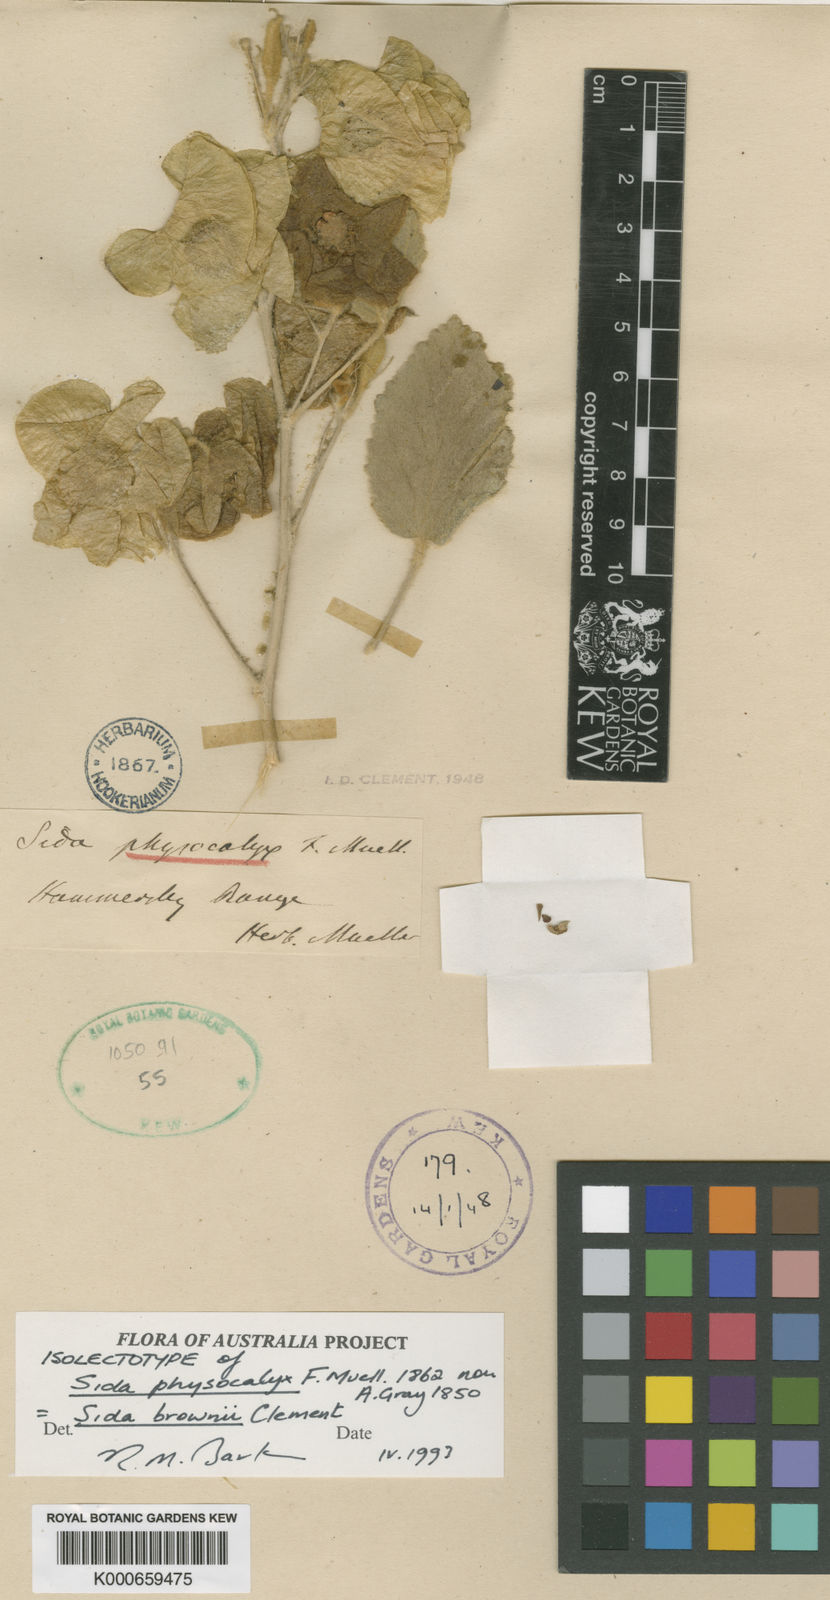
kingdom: Plantae
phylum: Tracheophyta
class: Magnoliopsida
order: Malvales
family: Malvaceae
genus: Sida
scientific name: Sida brownii
